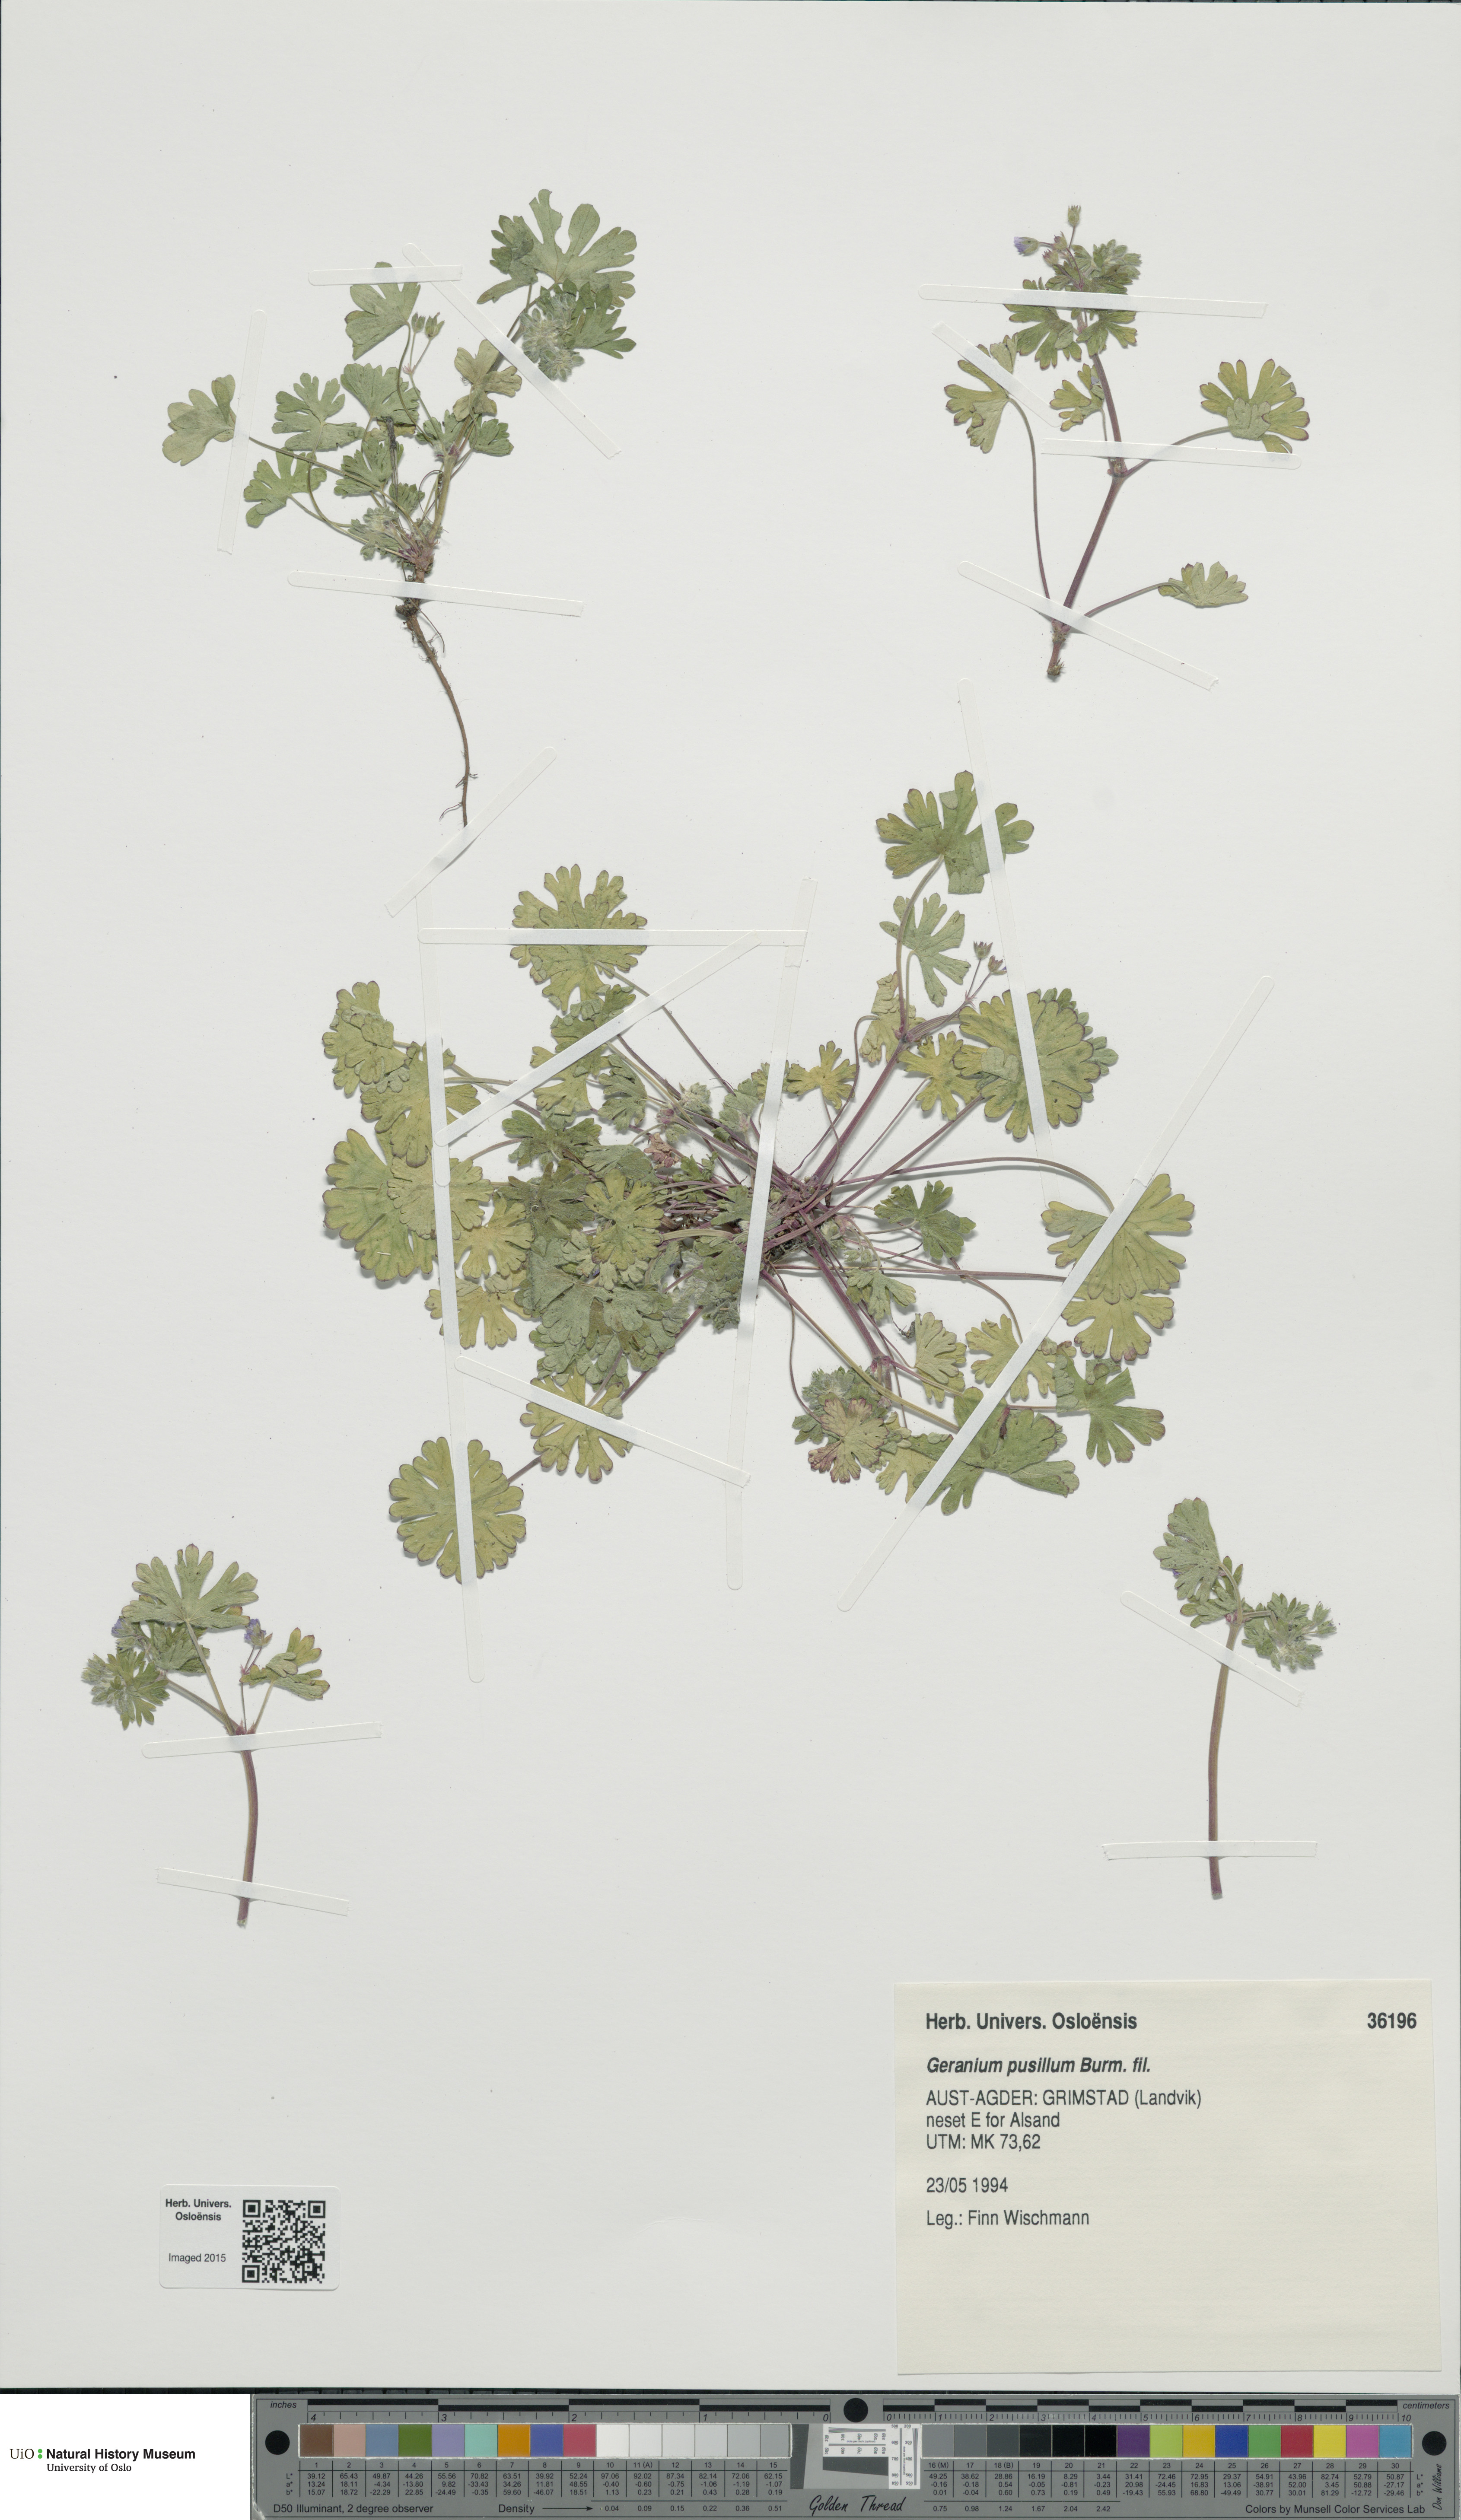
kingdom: Plantae
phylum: Tracheophyta
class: Magnoliopsida
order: Geraniales
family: Geraniaceae
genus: Geranium
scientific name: Geranium pusillum
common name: Small geranium
